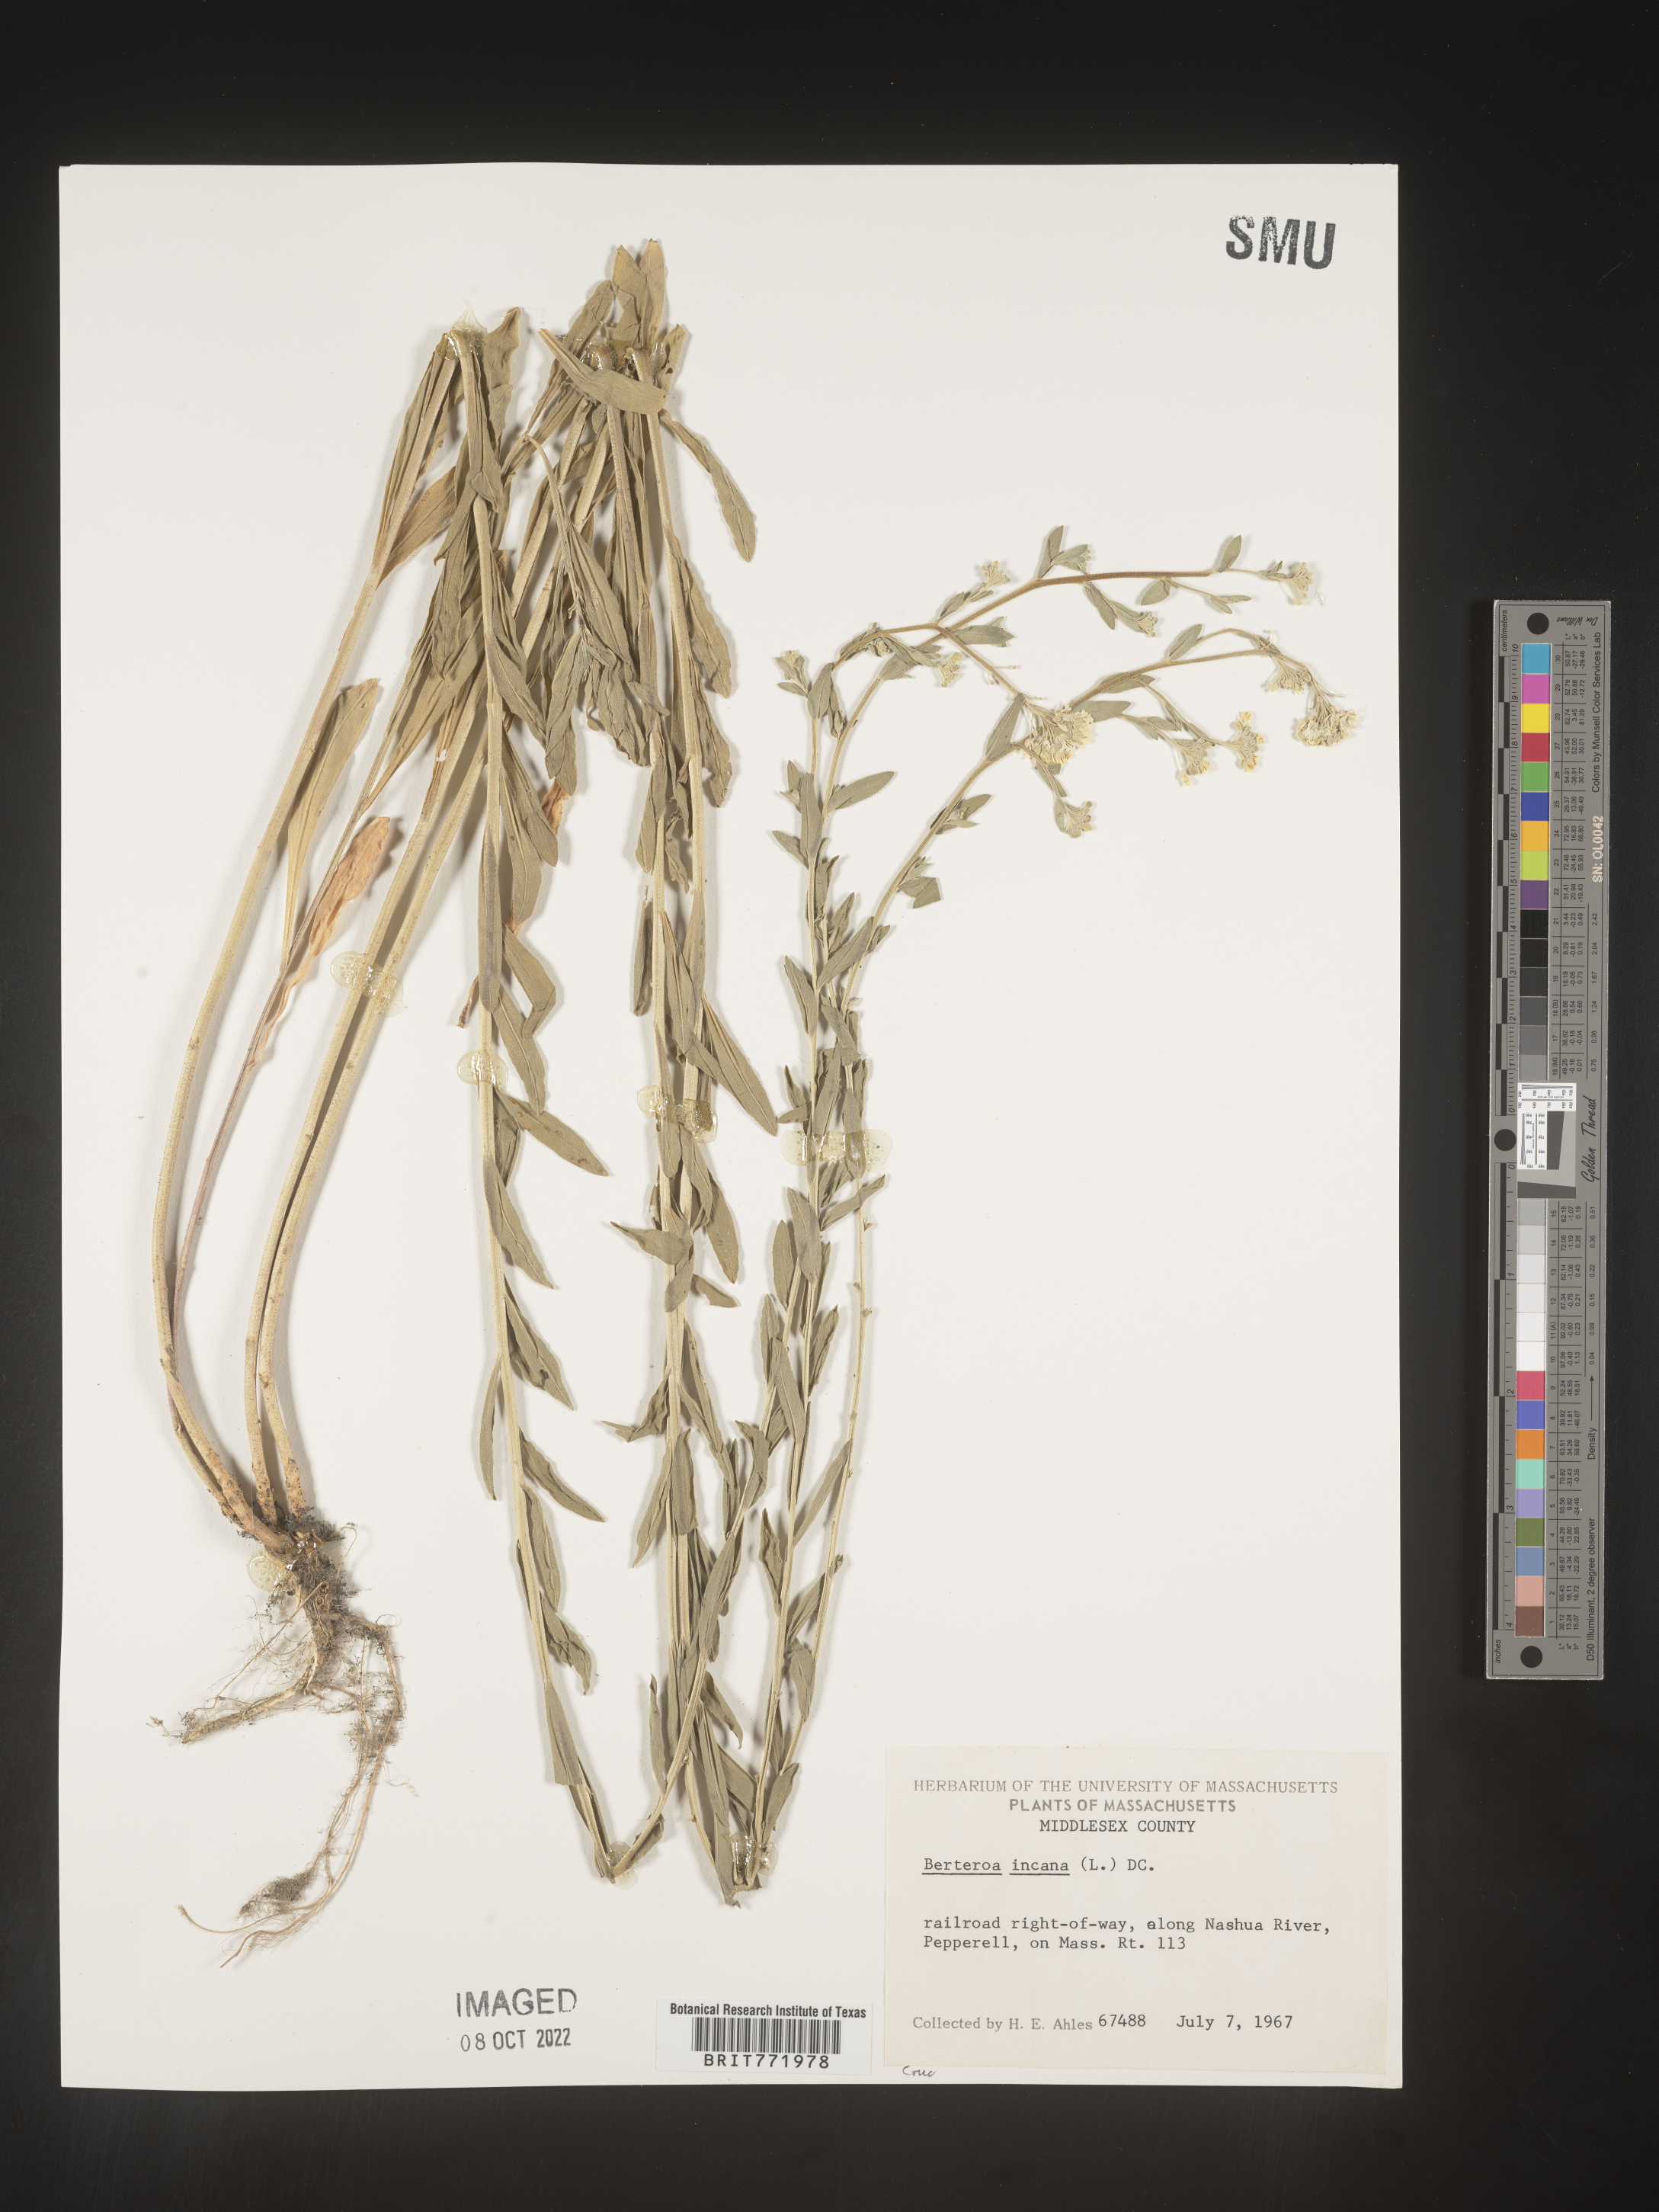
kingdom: Plantae
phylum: Tracheophyta
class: Magnoliopsida
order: Brassicales
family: Brassicaceae
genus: Berteroa
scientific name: Berteroa incana
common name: Hoary alison
